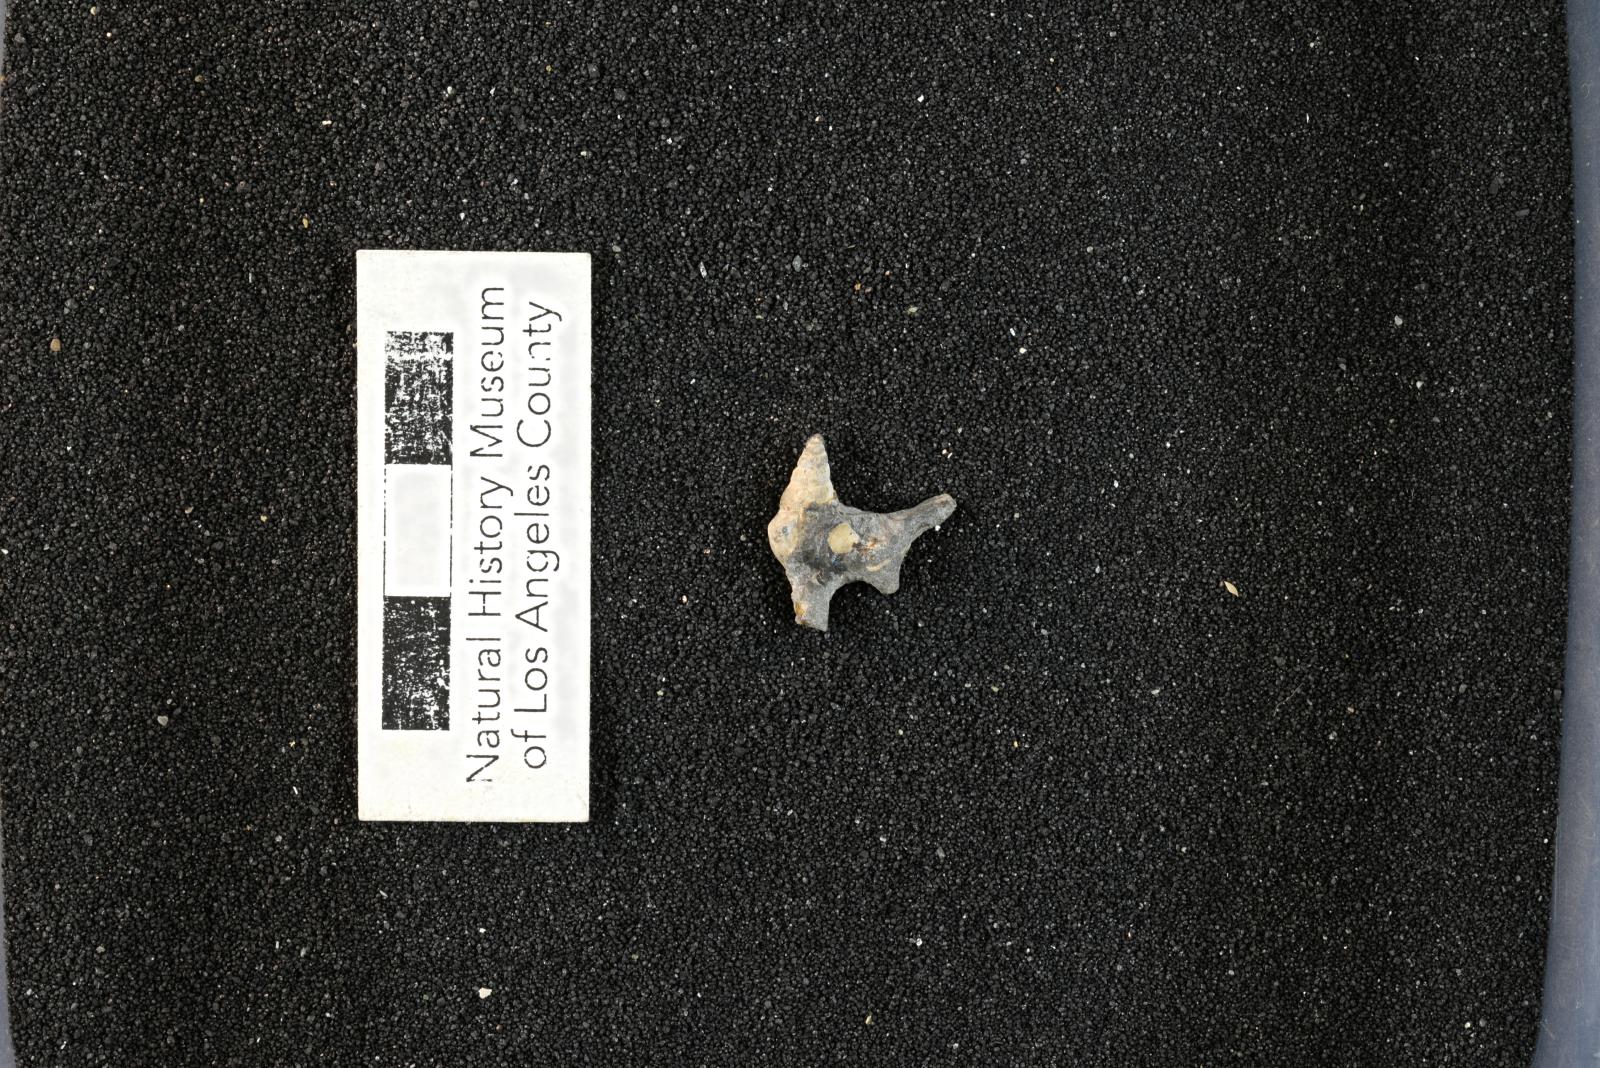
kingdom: Animalia
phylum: Mollusca
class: Gastropoda
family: Potamididae
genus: Echinobathra
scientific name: Echinobathra Cerithium austinense
